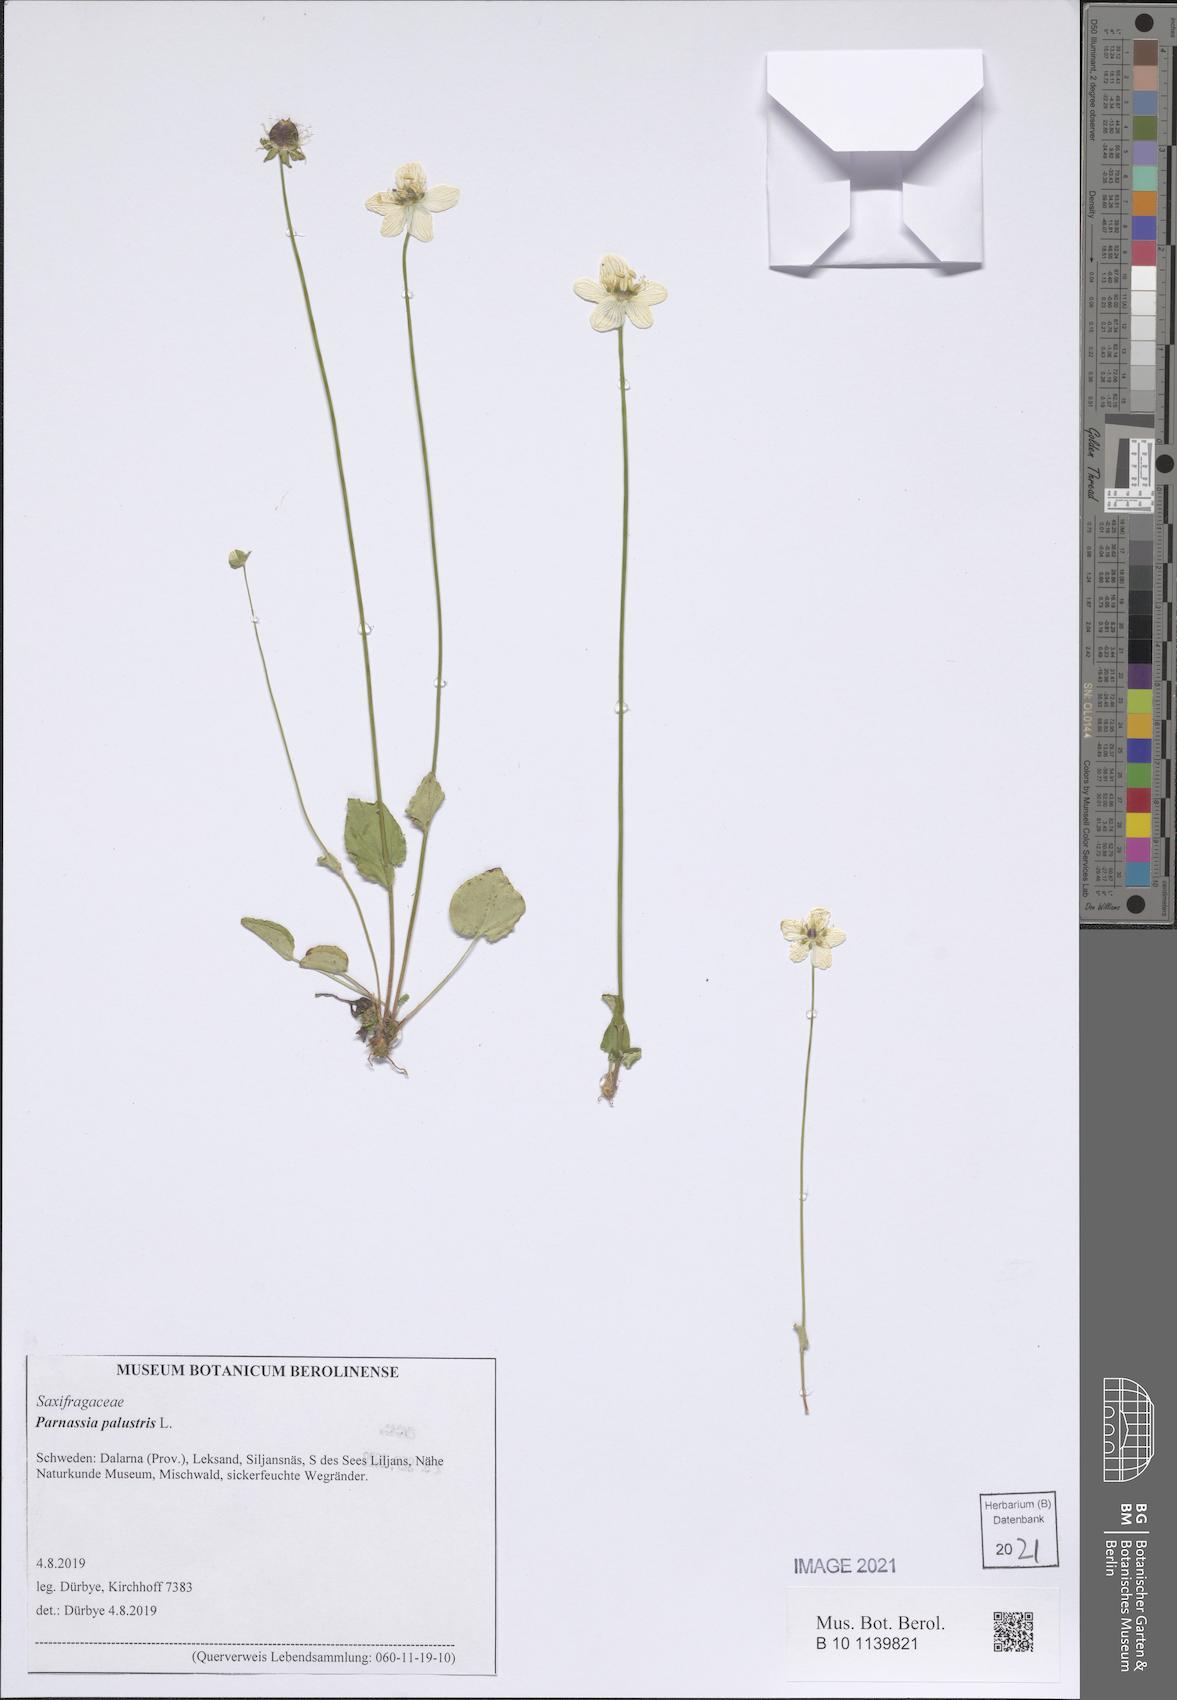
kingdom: Plantae
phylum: Tracheophyta
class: Magnoliopsida
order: Celastrales
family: Parnassiaceae
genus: Parnassia
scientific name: Parnassia palustris
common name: Grass-of-parnassus
